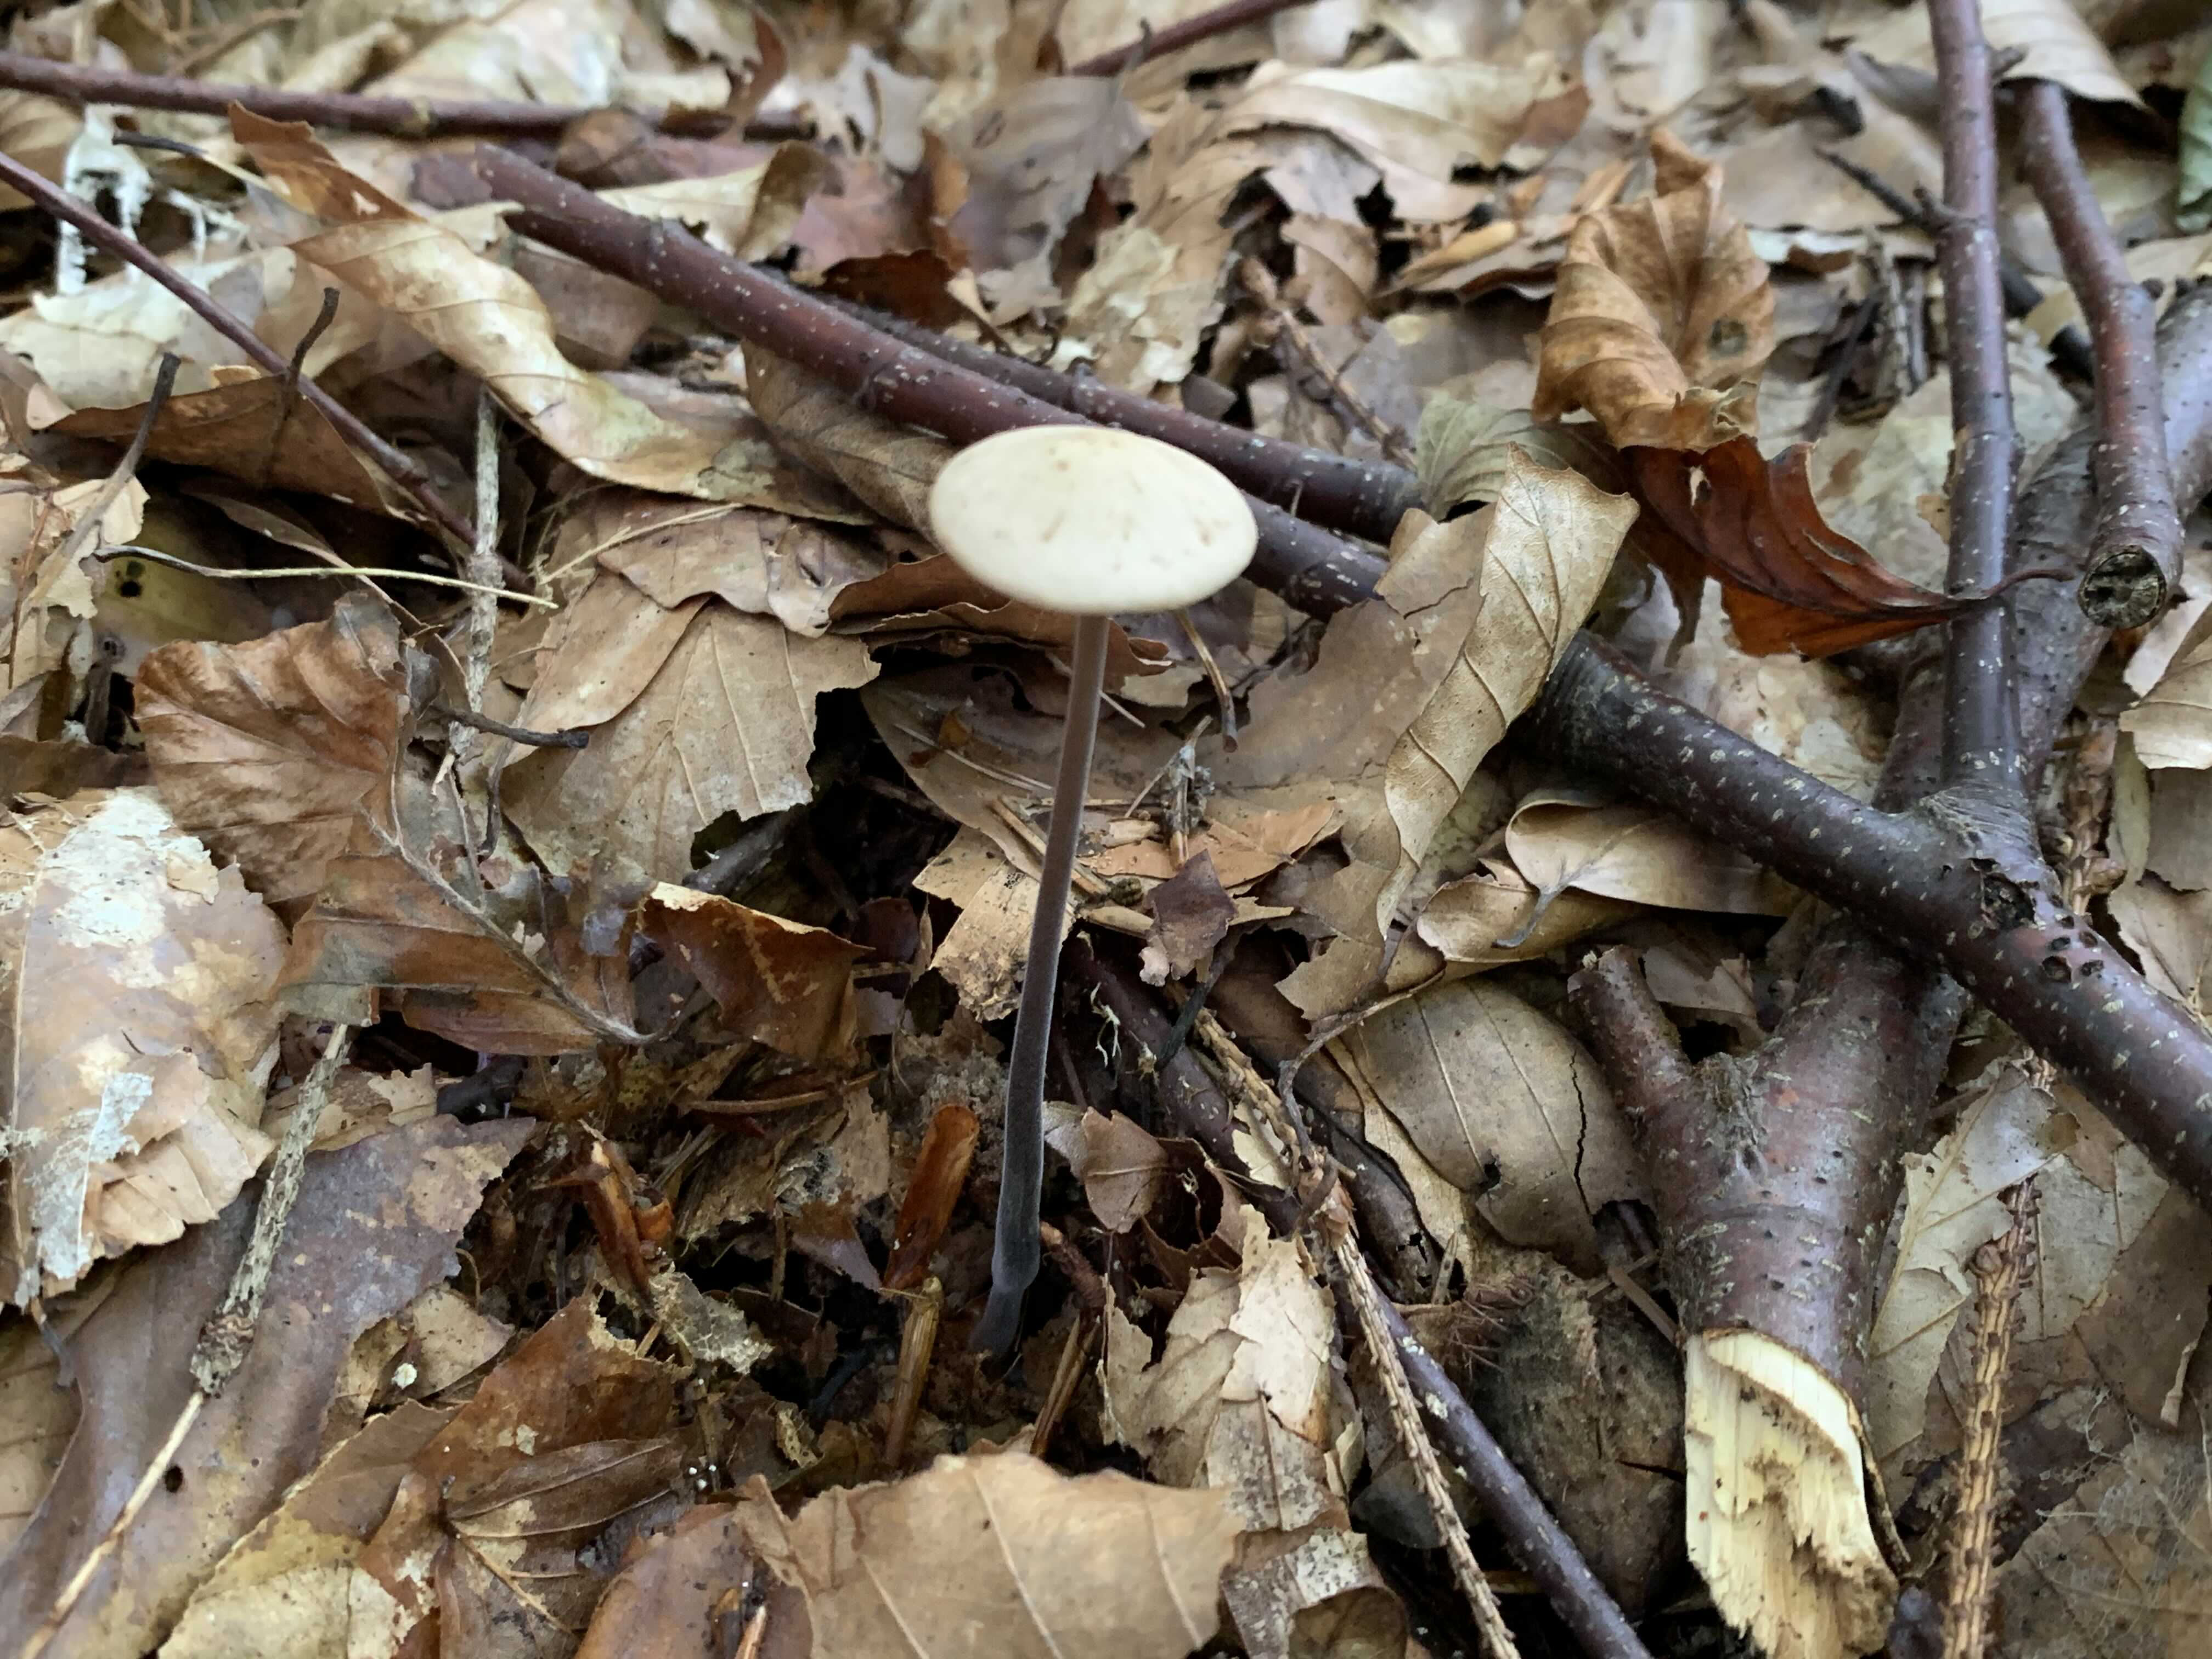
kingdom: Fungi
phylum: Basidiomycota
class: Agaricomycetes
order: Agaricales
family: Omphalotaceae
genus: Mycetinis
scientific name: Mycetinis alliaceus
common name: stor løghat
